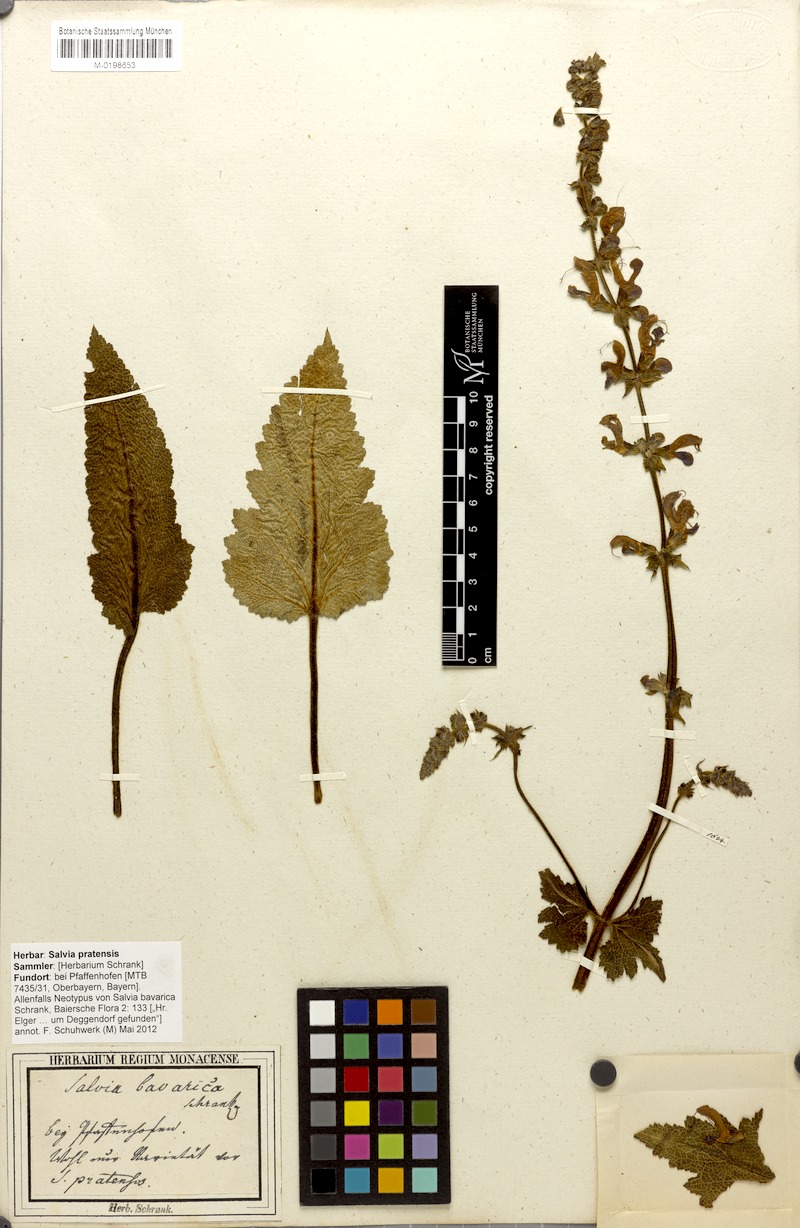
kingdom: Plantae
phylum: Tracheophyta
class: Magnoliopsida
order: Lamiales
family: Lamiaceae
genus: Salvia
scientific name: Salvia pratensis
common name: Meadow sage
